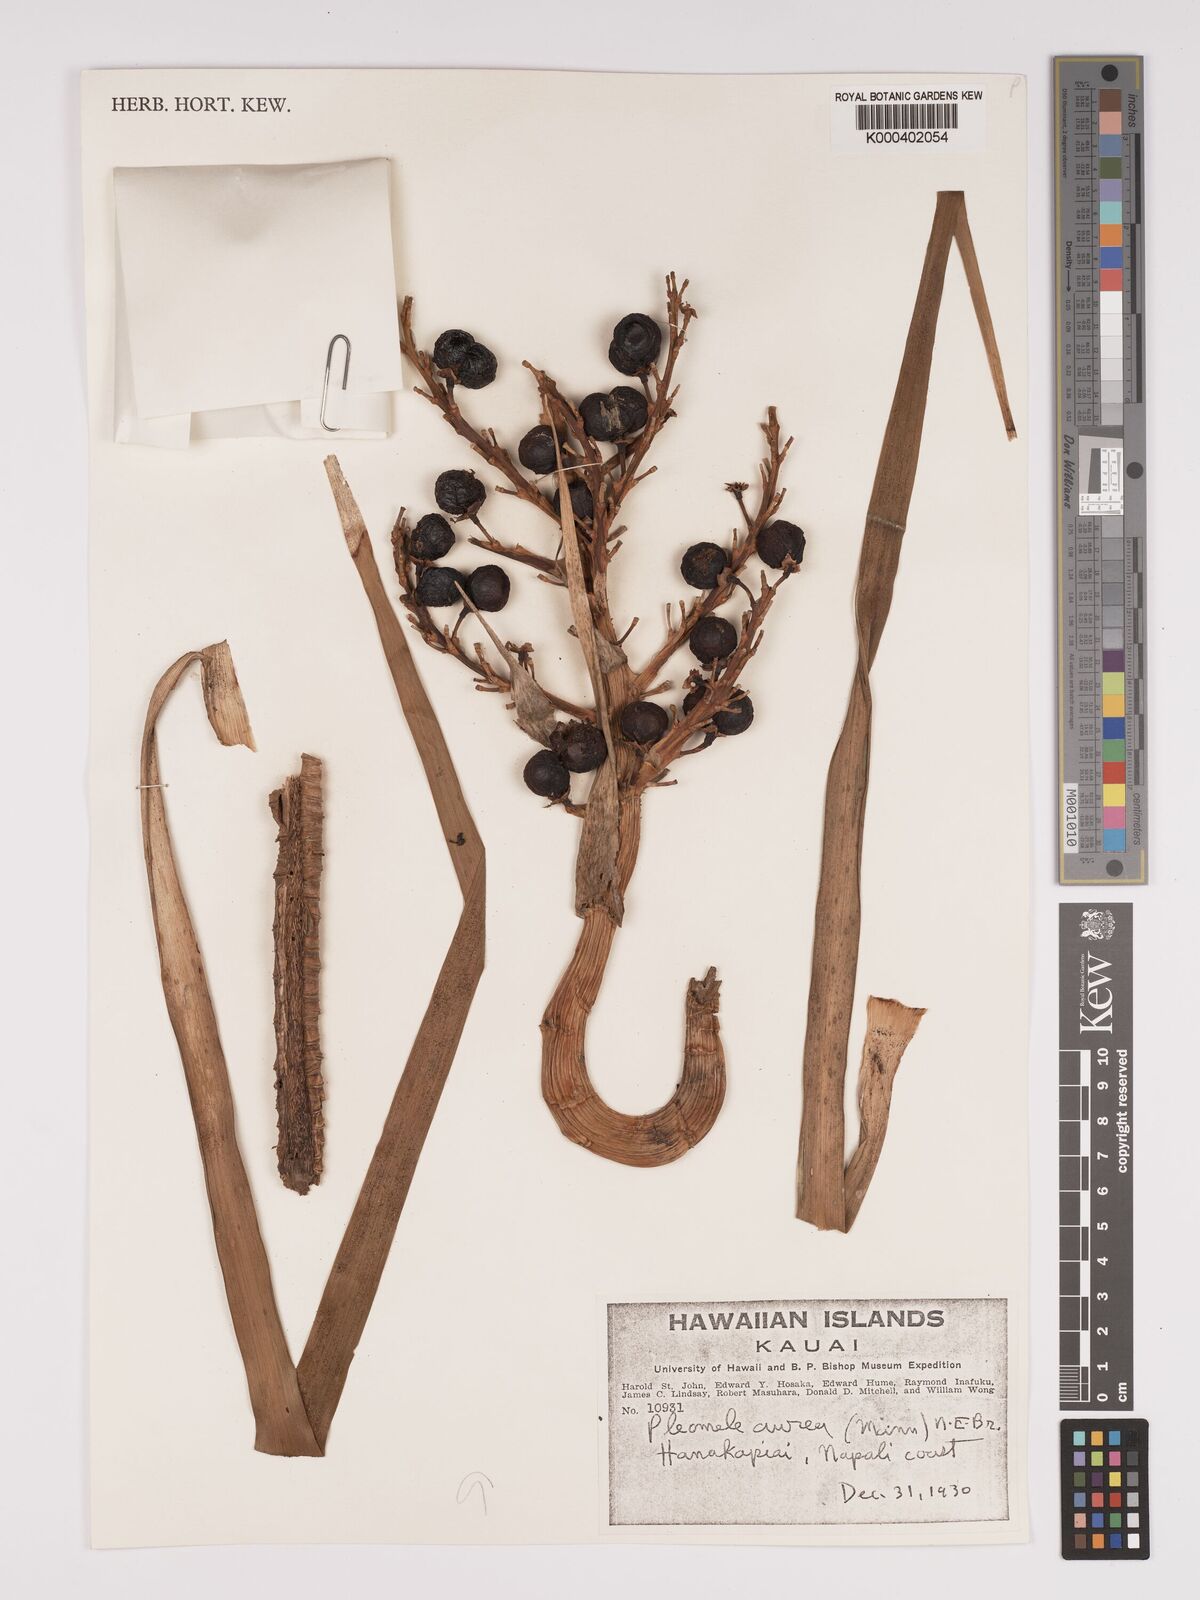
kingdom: Plantae
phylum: Tracheophyta
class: Liliopsida
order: Asparagales
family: Asparagaceae
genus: Dracaena
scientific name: Dracaena aurea
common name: Golden dracaena
